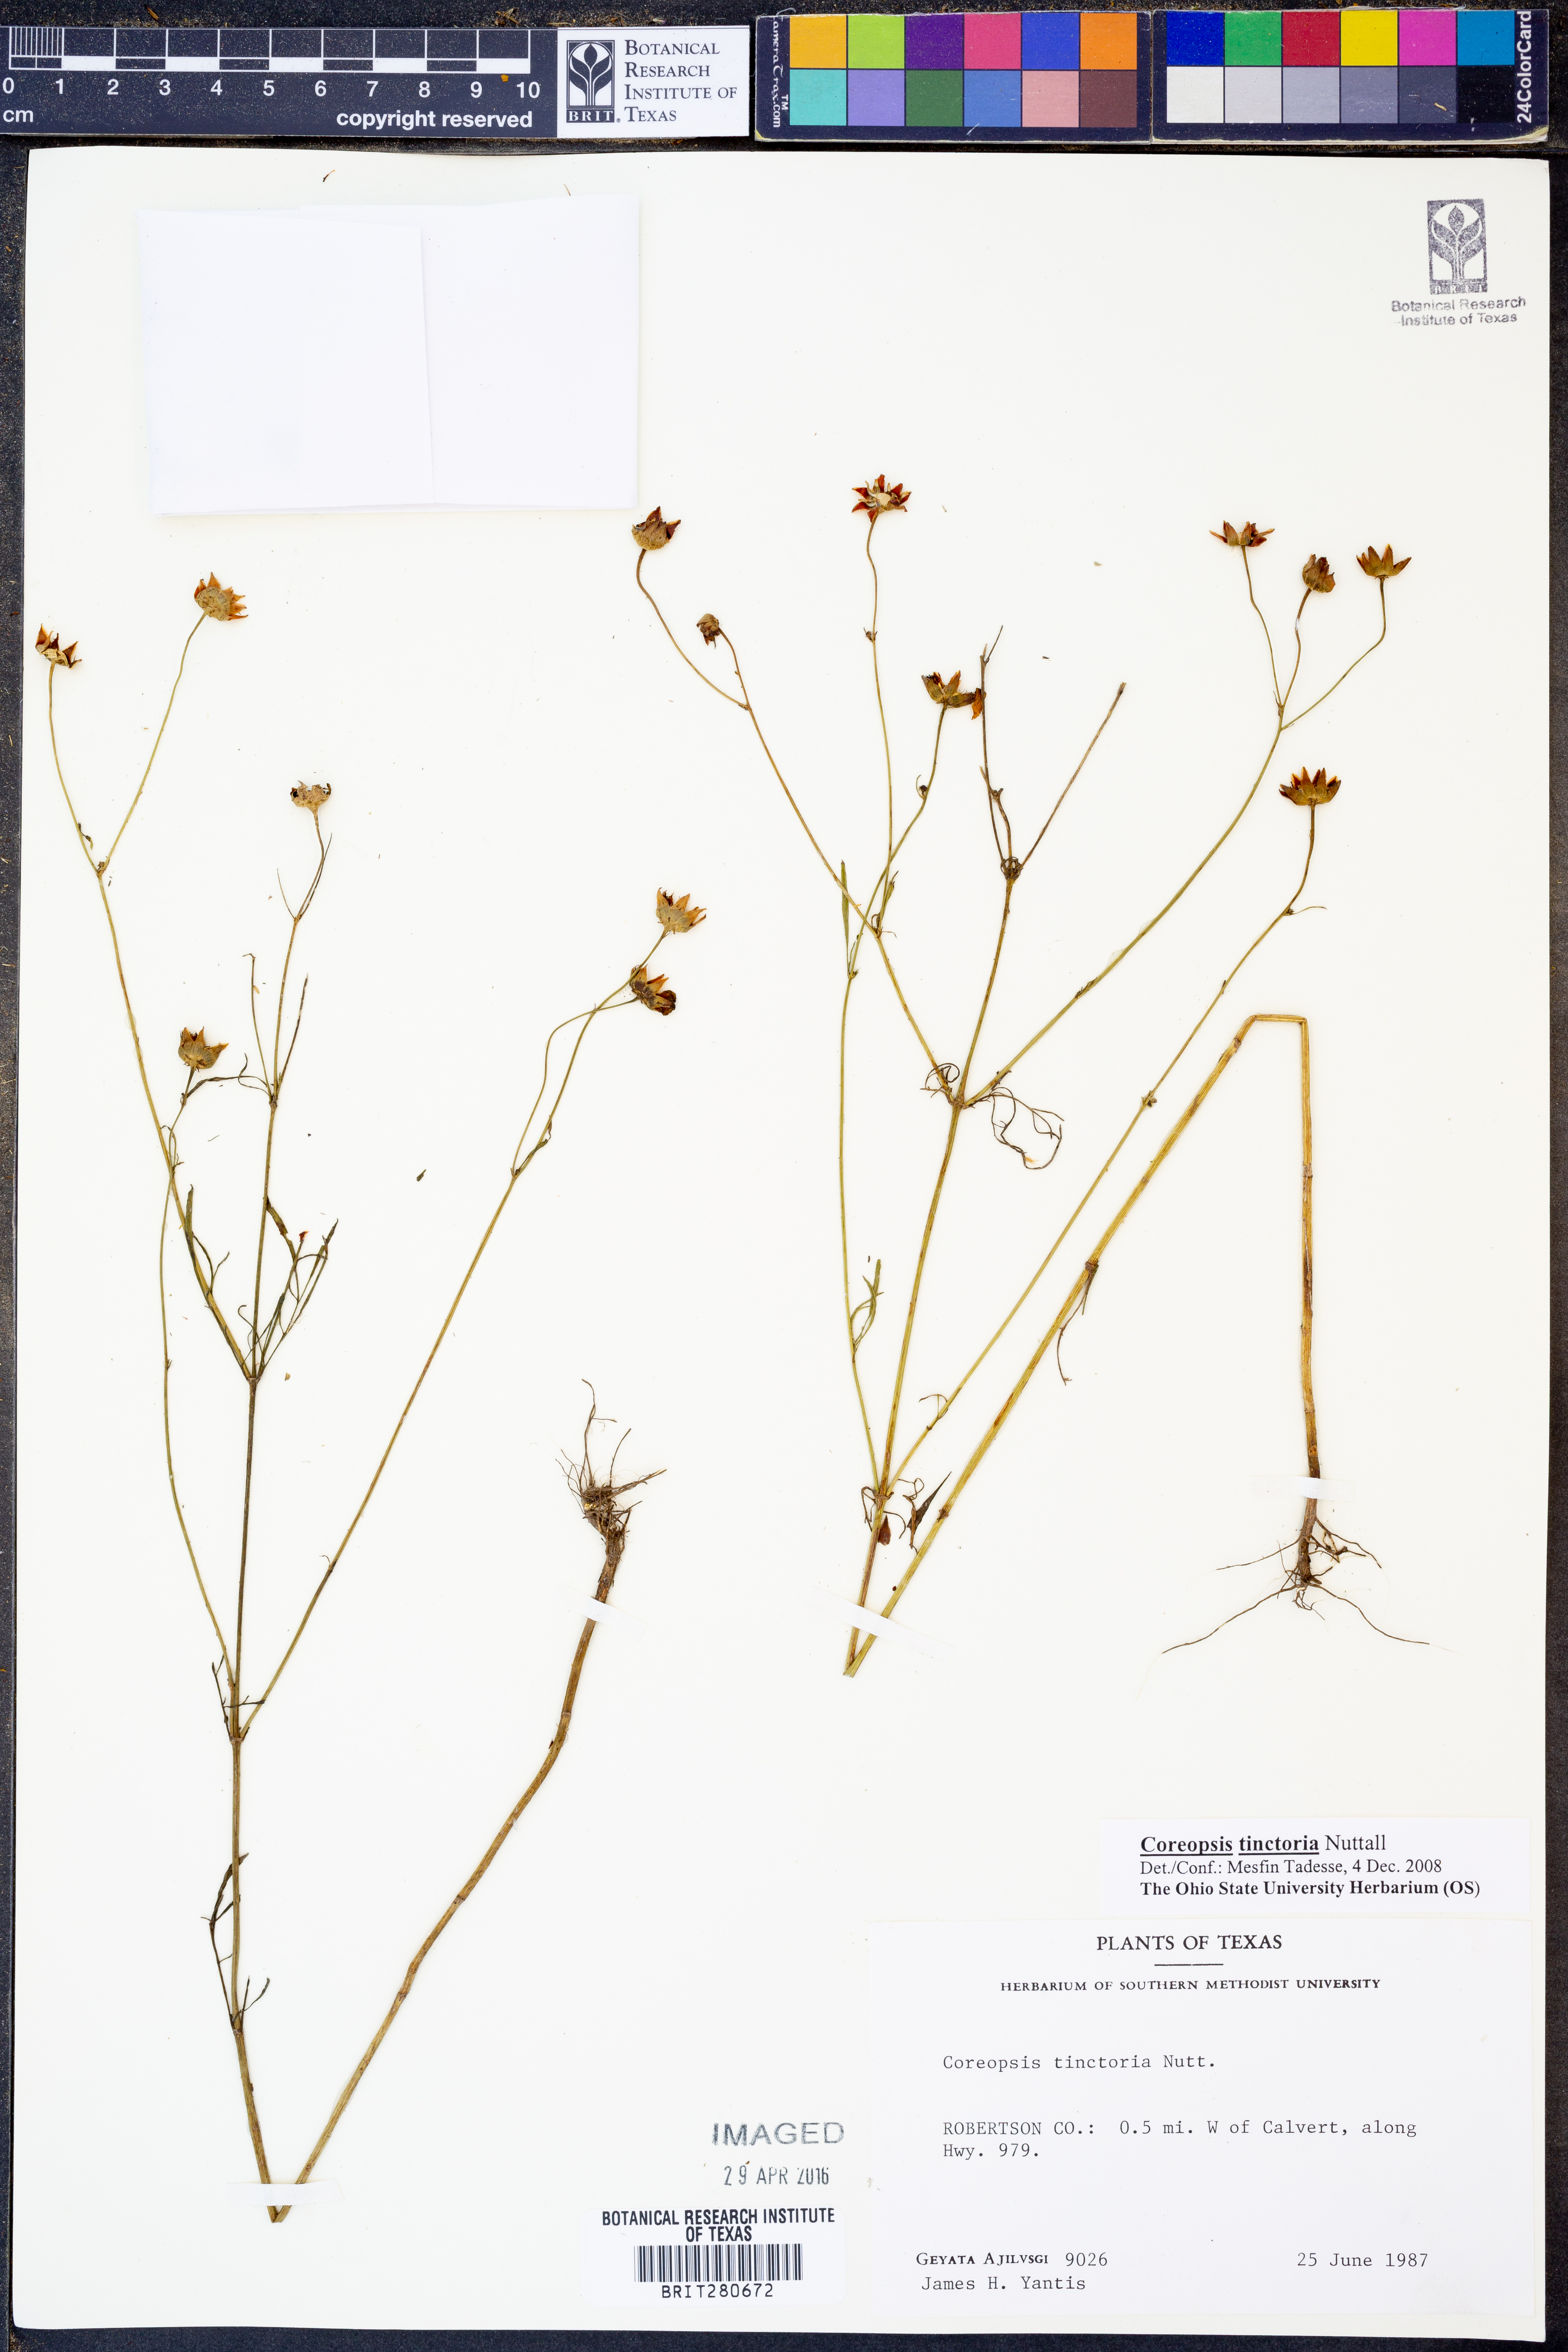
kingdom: Plantae
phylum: Tracheophyta
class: Magnoliopsida
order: Asterales
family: Asteraceae
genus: Coreopsis
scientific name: Coreopsis tinctoria
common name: Garden tickseed
